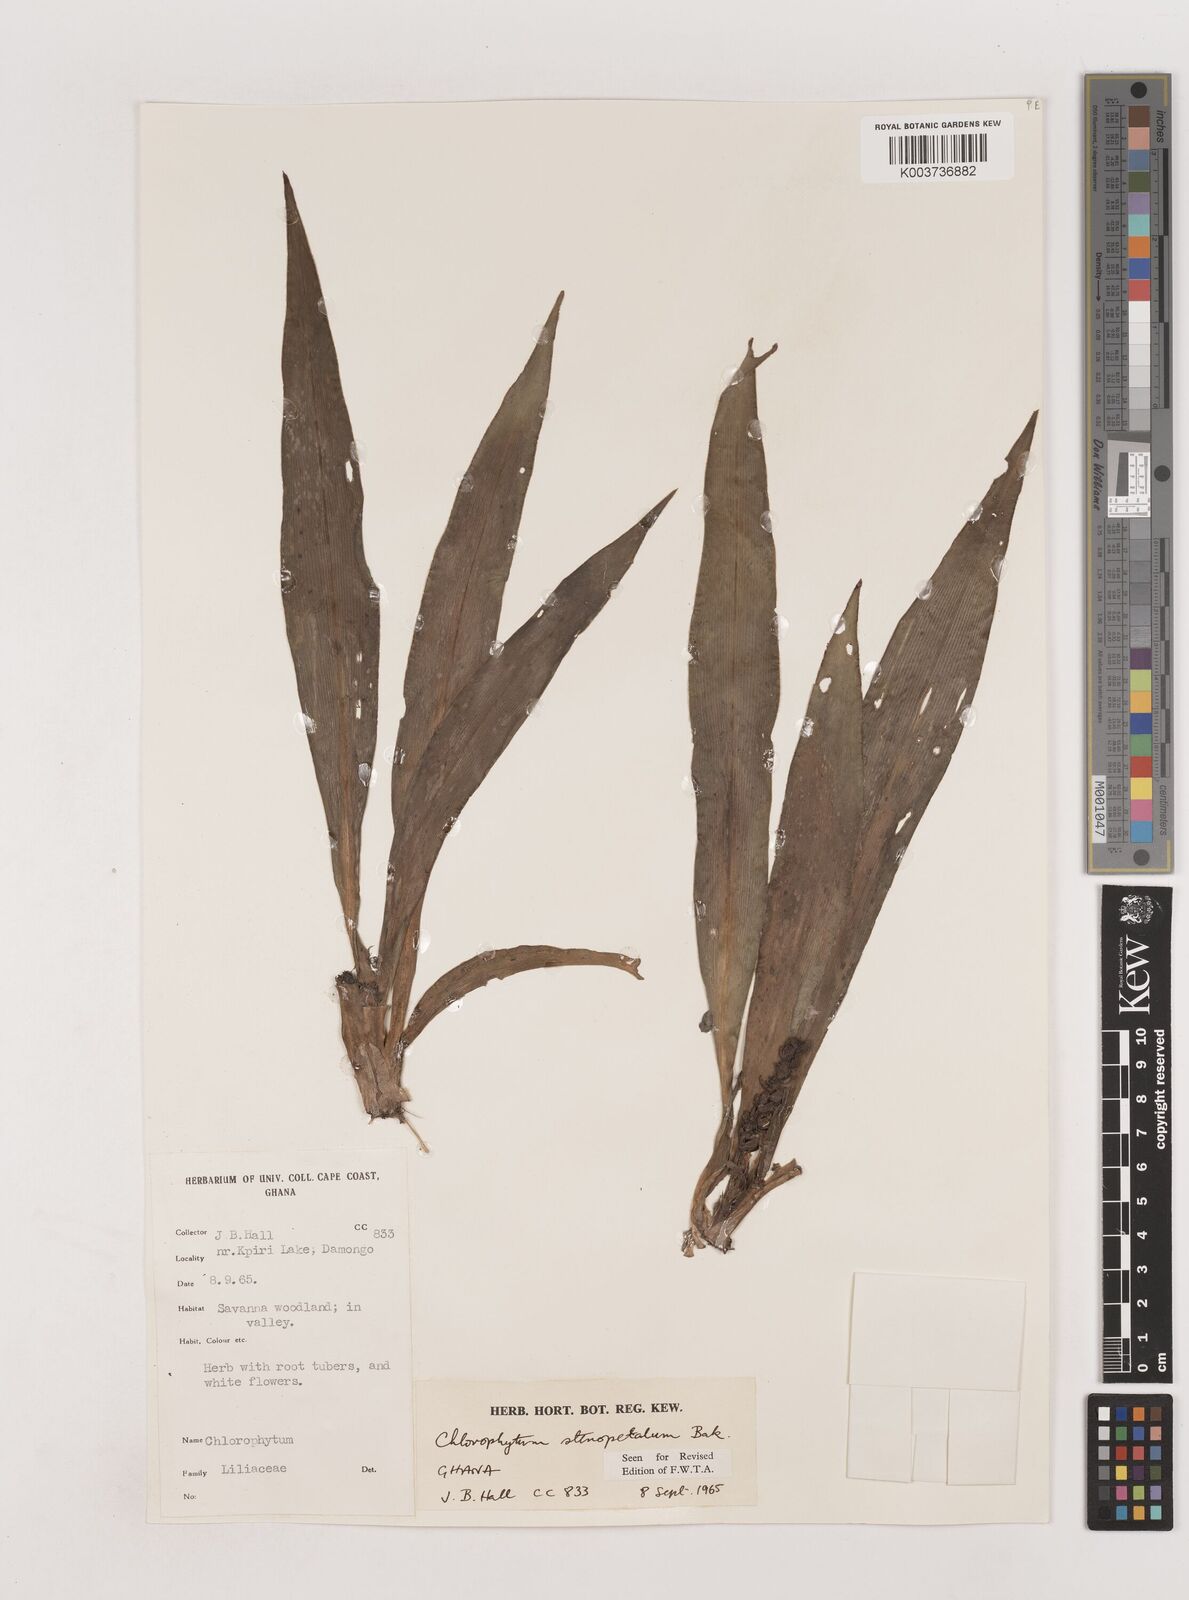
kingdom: Plantae
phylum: Tracheophyta
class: Liliopsida
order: Asparagales
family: Asparagaceae
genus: Chlorophytum
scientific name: Chlorophytum stenopetalum
